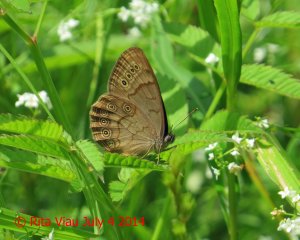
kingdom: Animalia
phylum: Arthropoda
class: Insecta
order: Lepidoptera
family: Nymphalidae
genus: Lethe
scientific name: Lethe eurydice
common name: Eyed Brown
